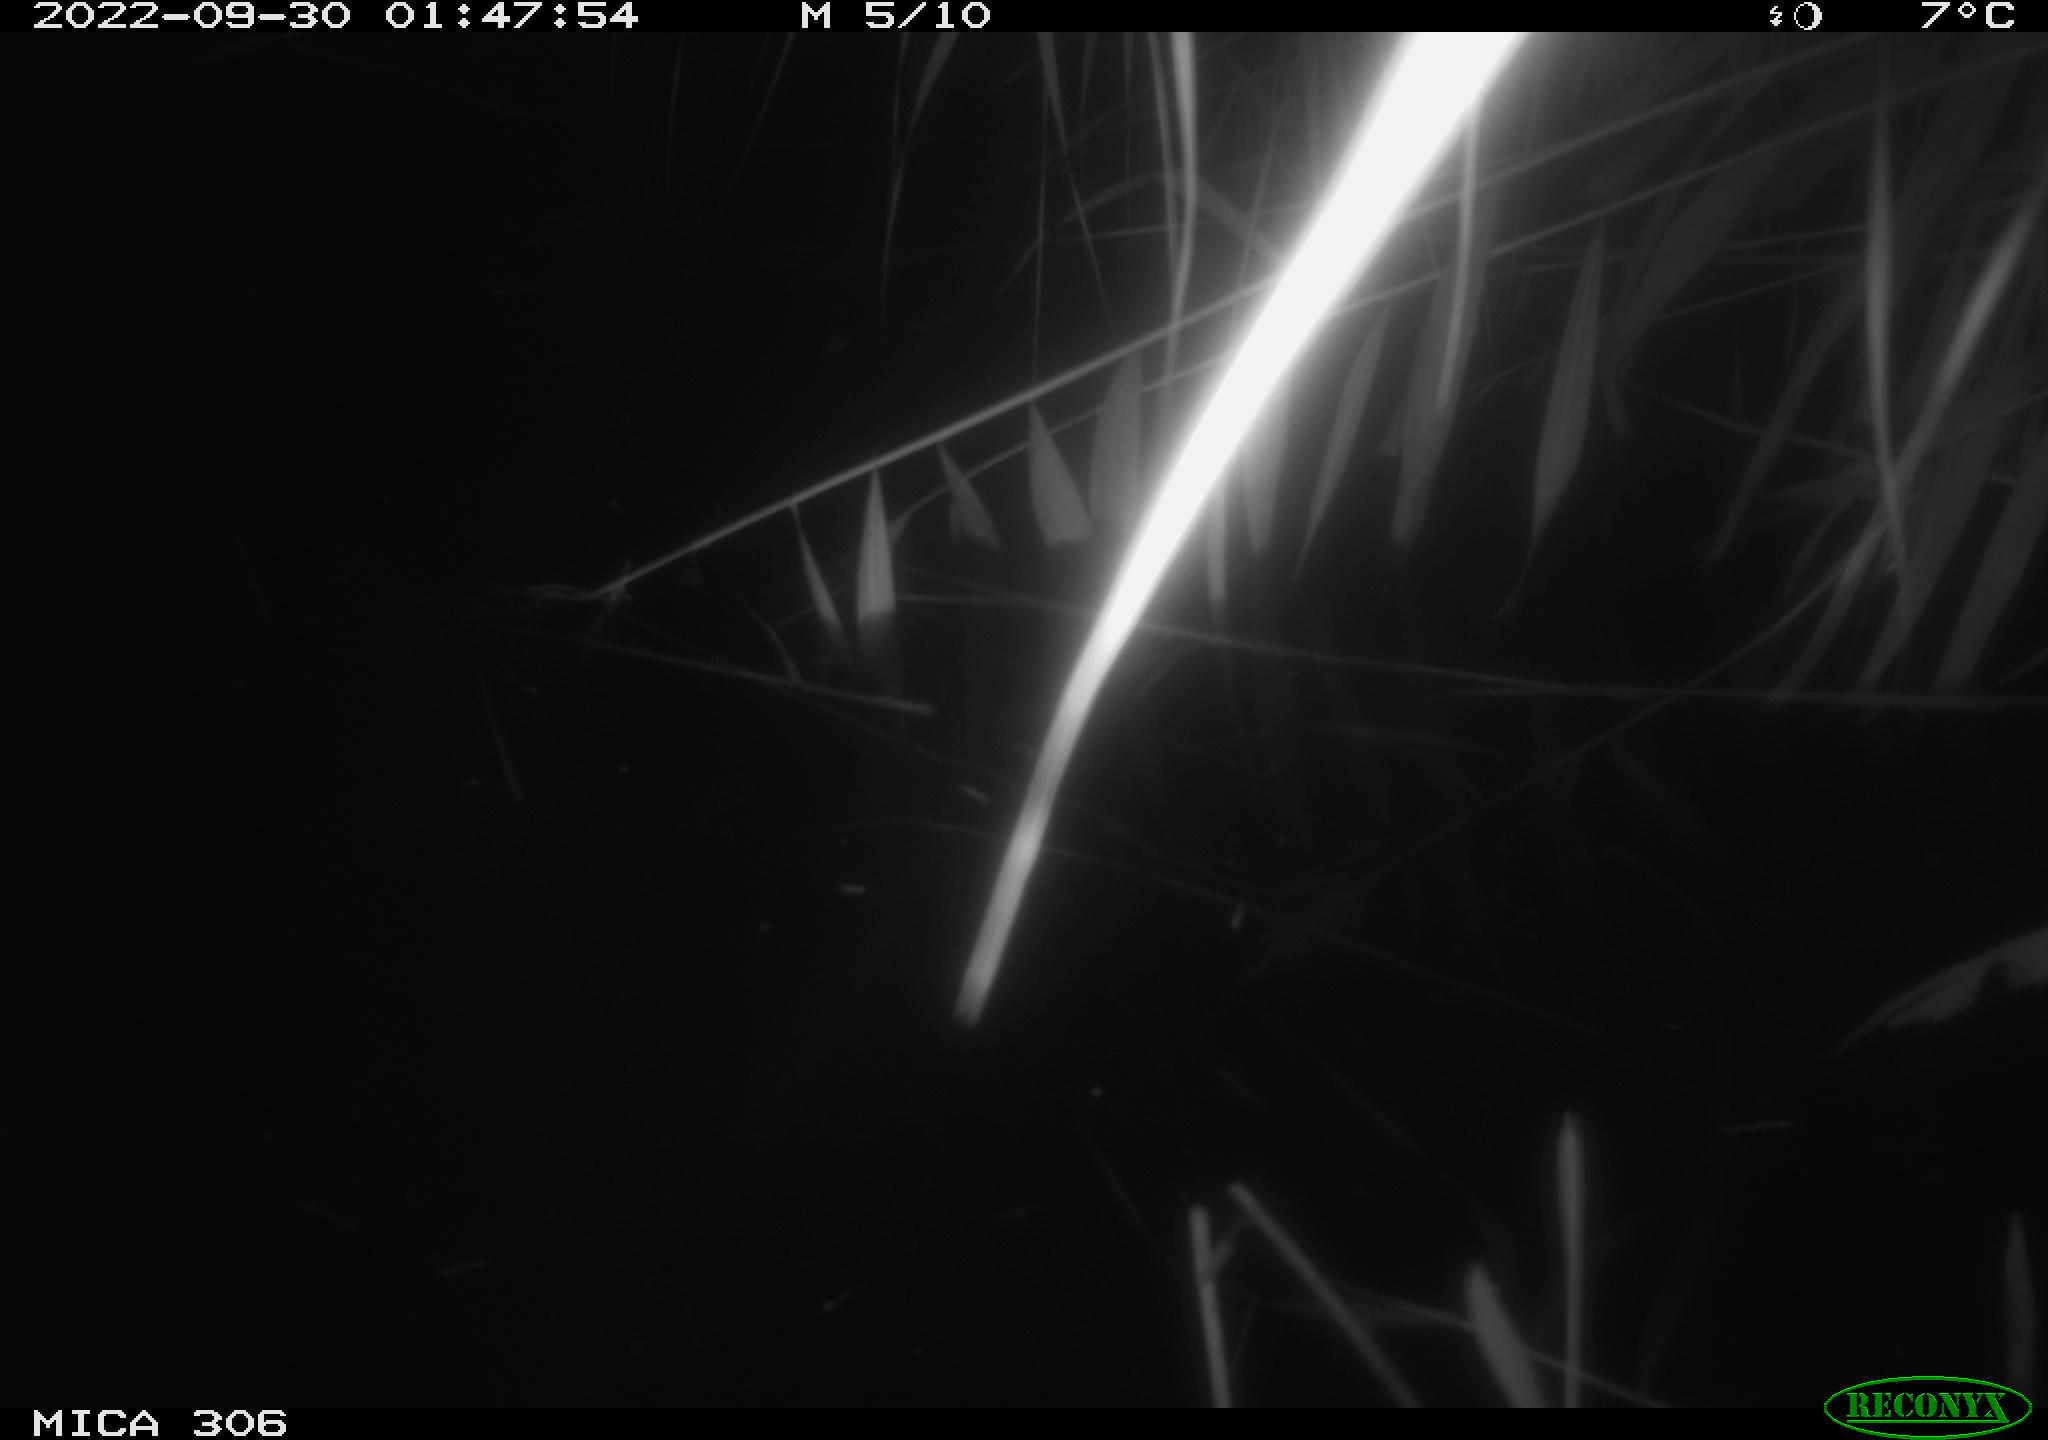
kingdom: Animalia
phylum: Chordata
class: Mammalia
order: Rodentia
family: Muridae
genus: Rattus
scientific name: Rattus norvegicus
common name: Brown rat
